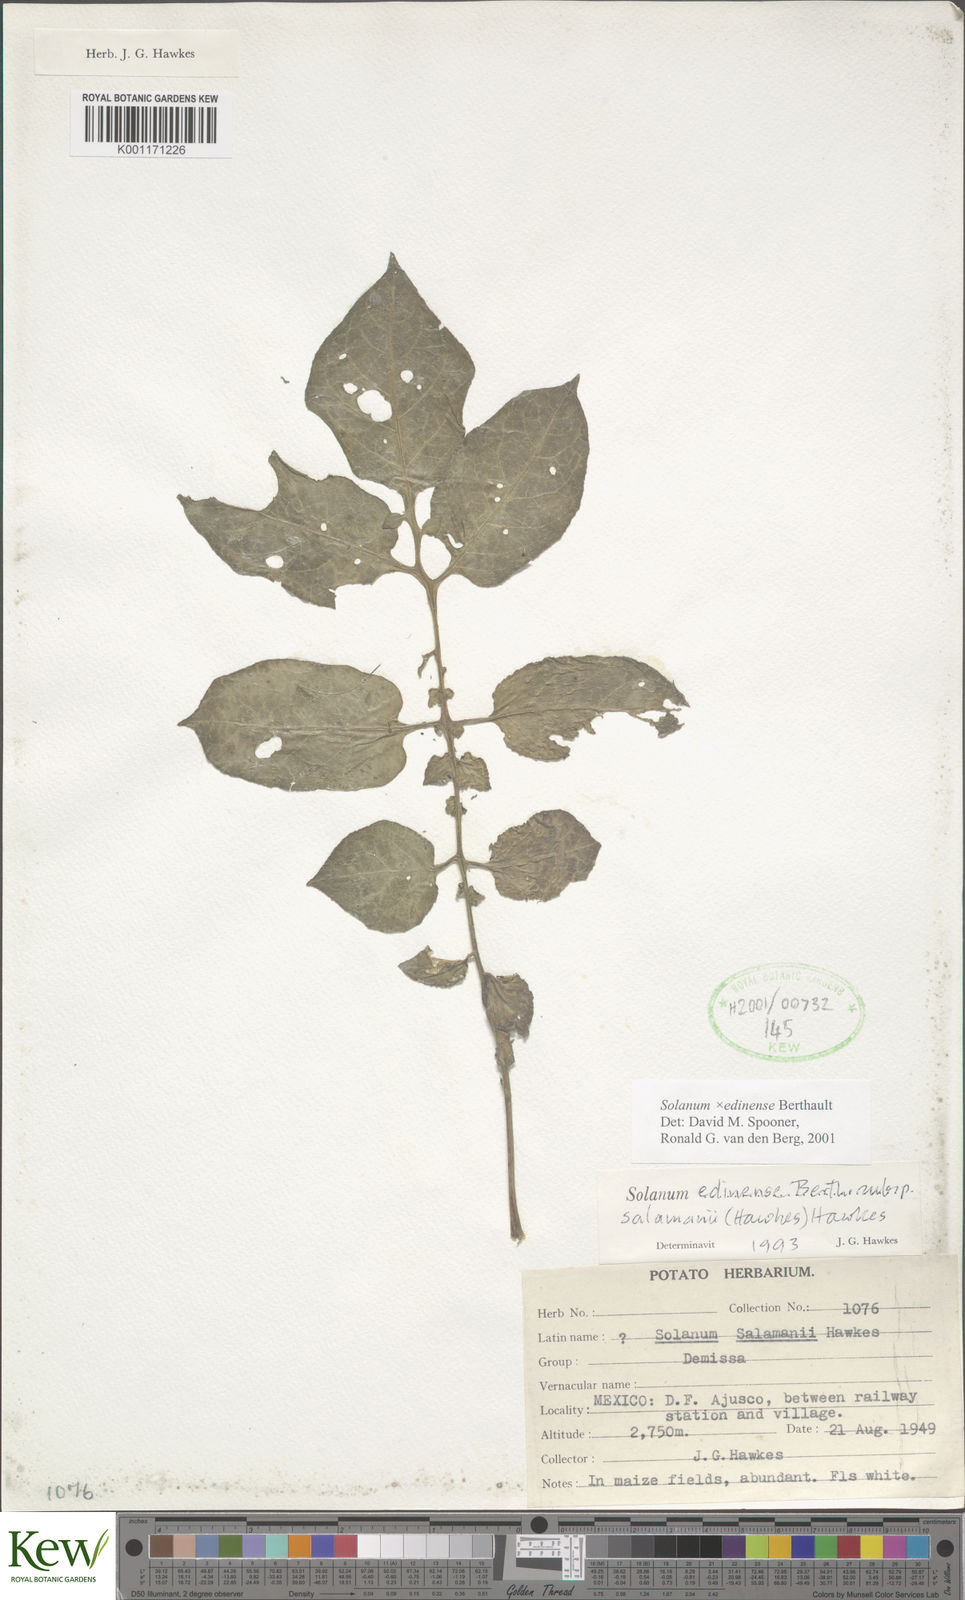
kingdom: Plantae
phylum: Tracheophyta
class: Magnoliopsida
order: Solanales
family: Solanaceae
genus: Solanum
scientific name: Solanum edinense
